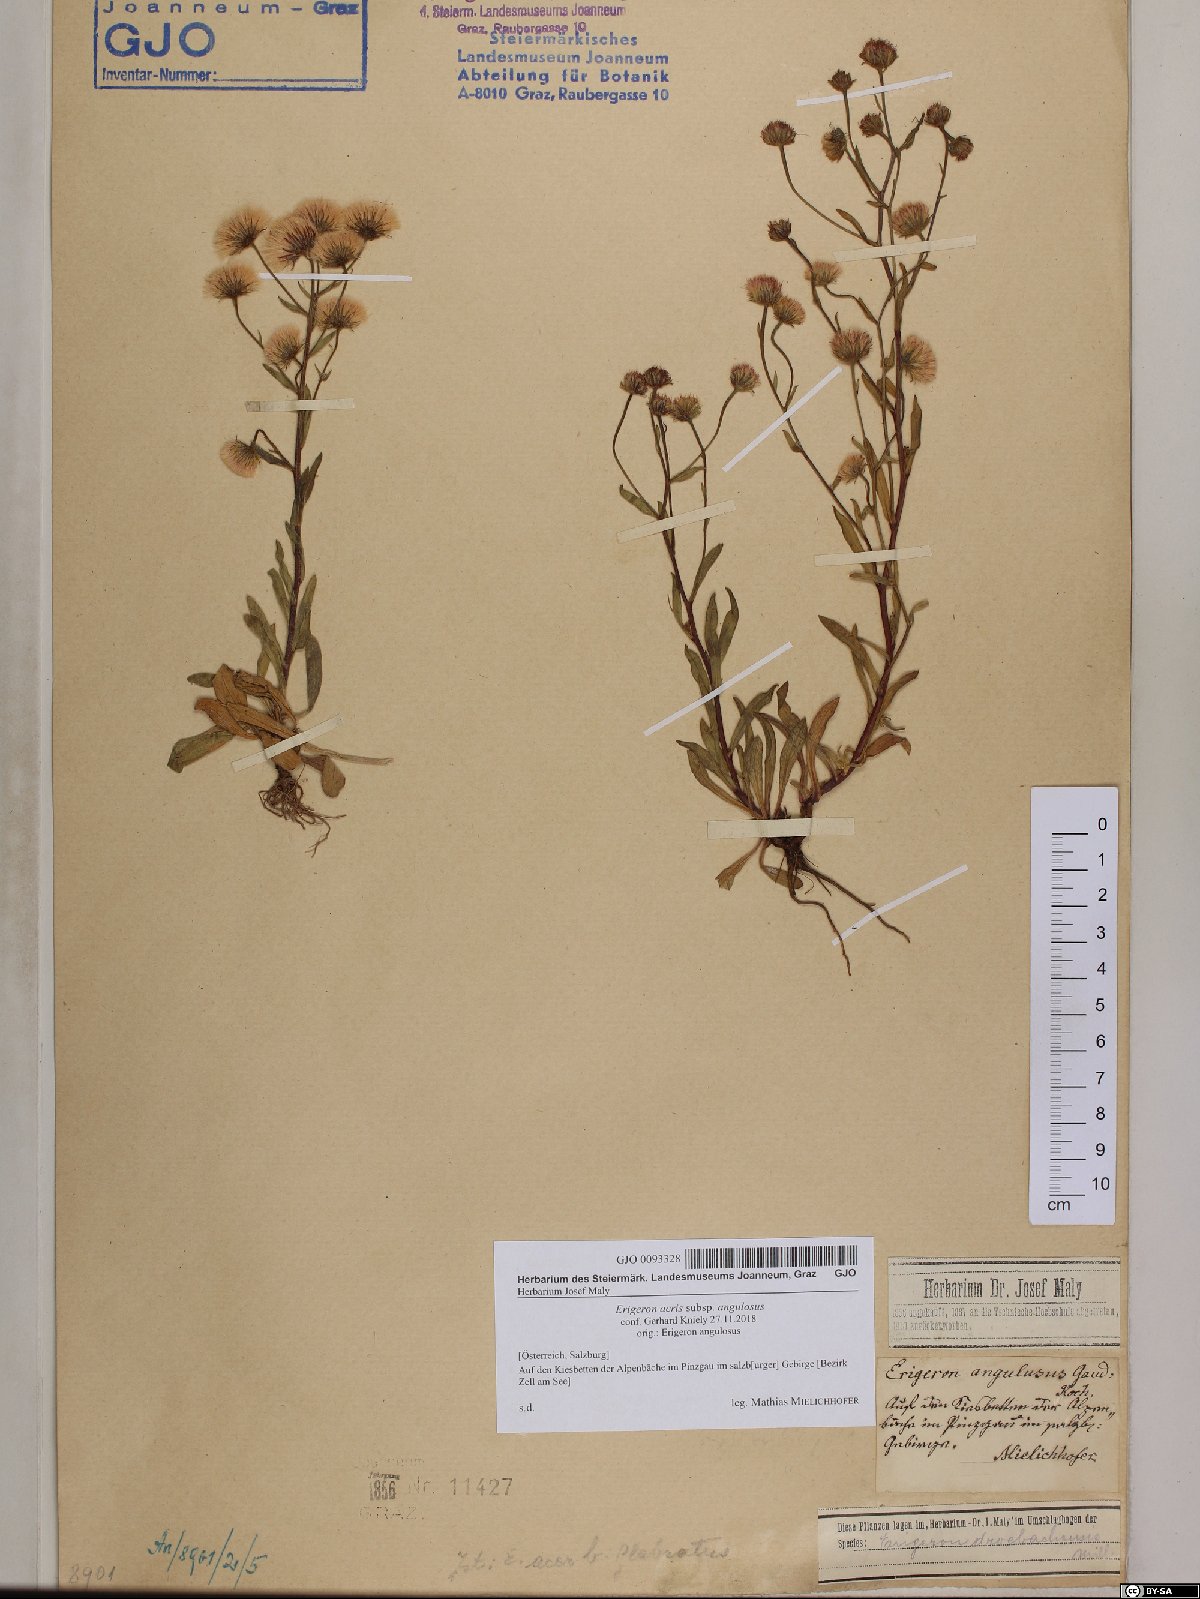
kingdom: Plantae
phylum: Tracheophyta
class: Magnoliopsida
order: Asterales
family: Asteraceae
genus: Erigeron
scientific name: Erigeron angulosus
